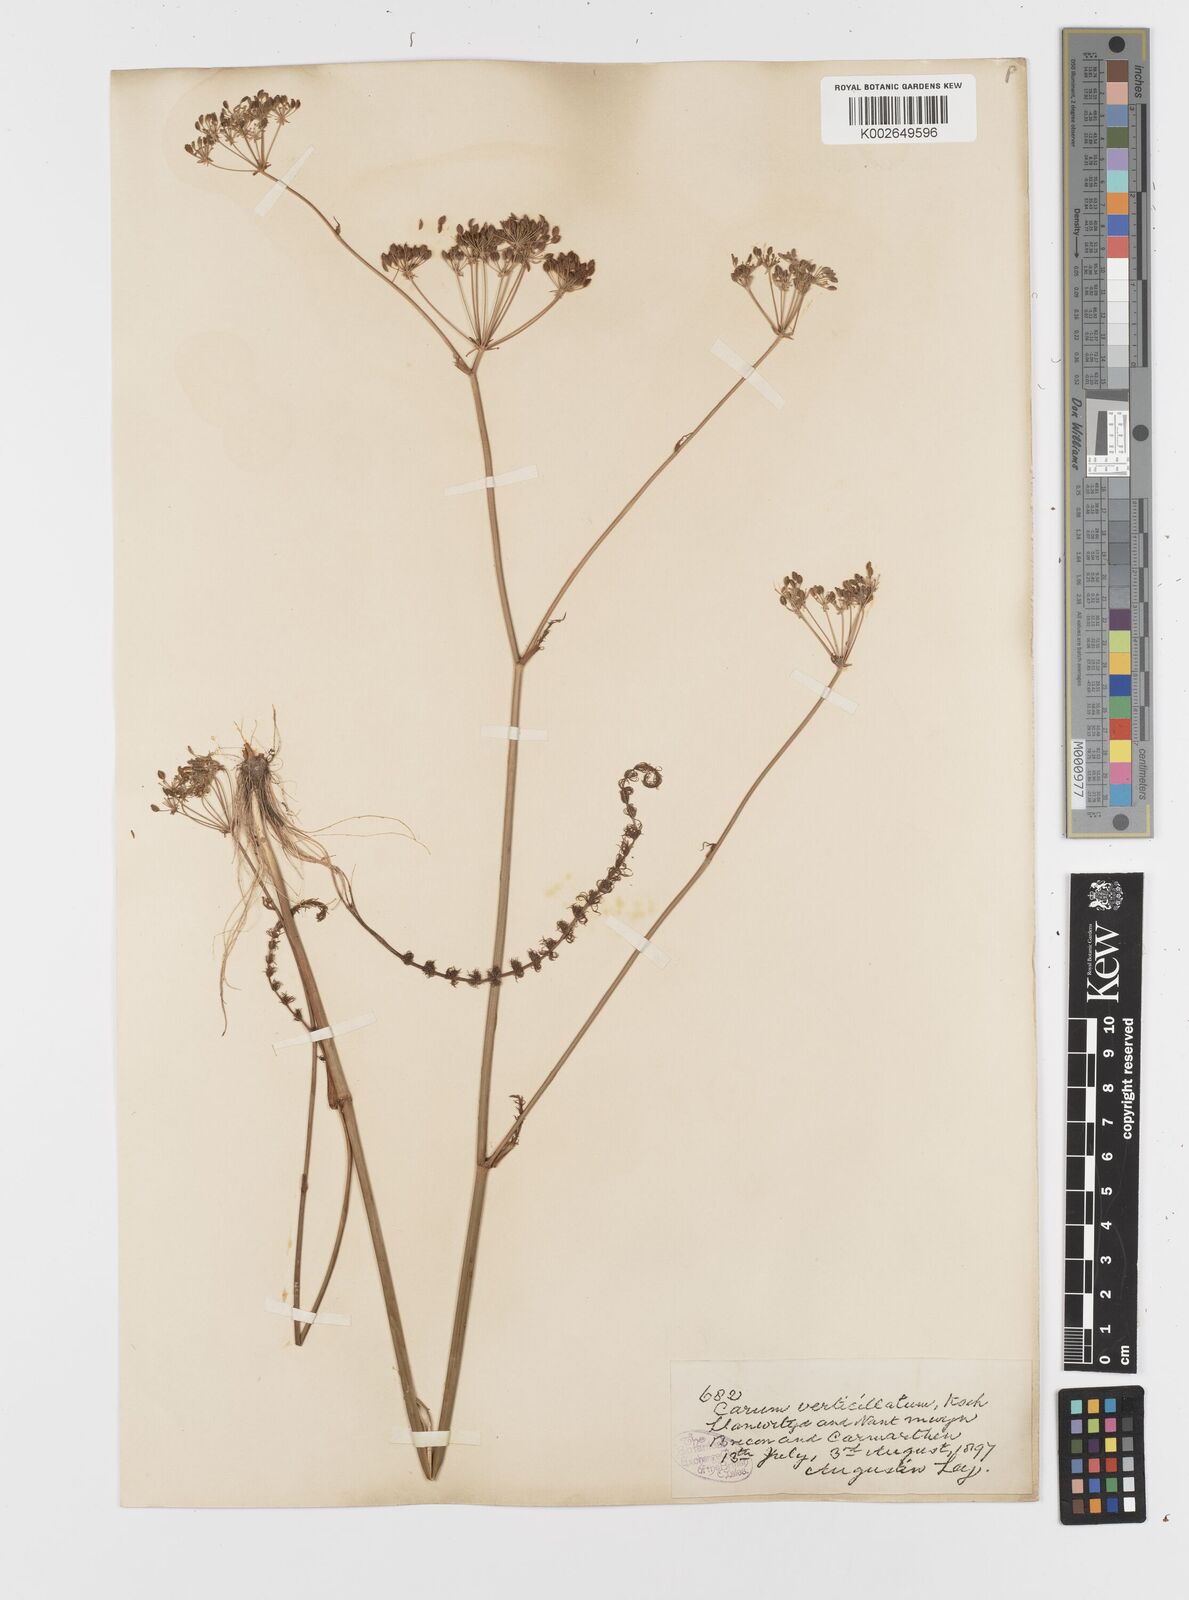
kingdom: Plantae
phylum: Tracheophyta
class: Magnoliopsida
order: Apiales
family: Apiaceae
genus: Trocdaris
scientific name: Trocdaris verticillatum
